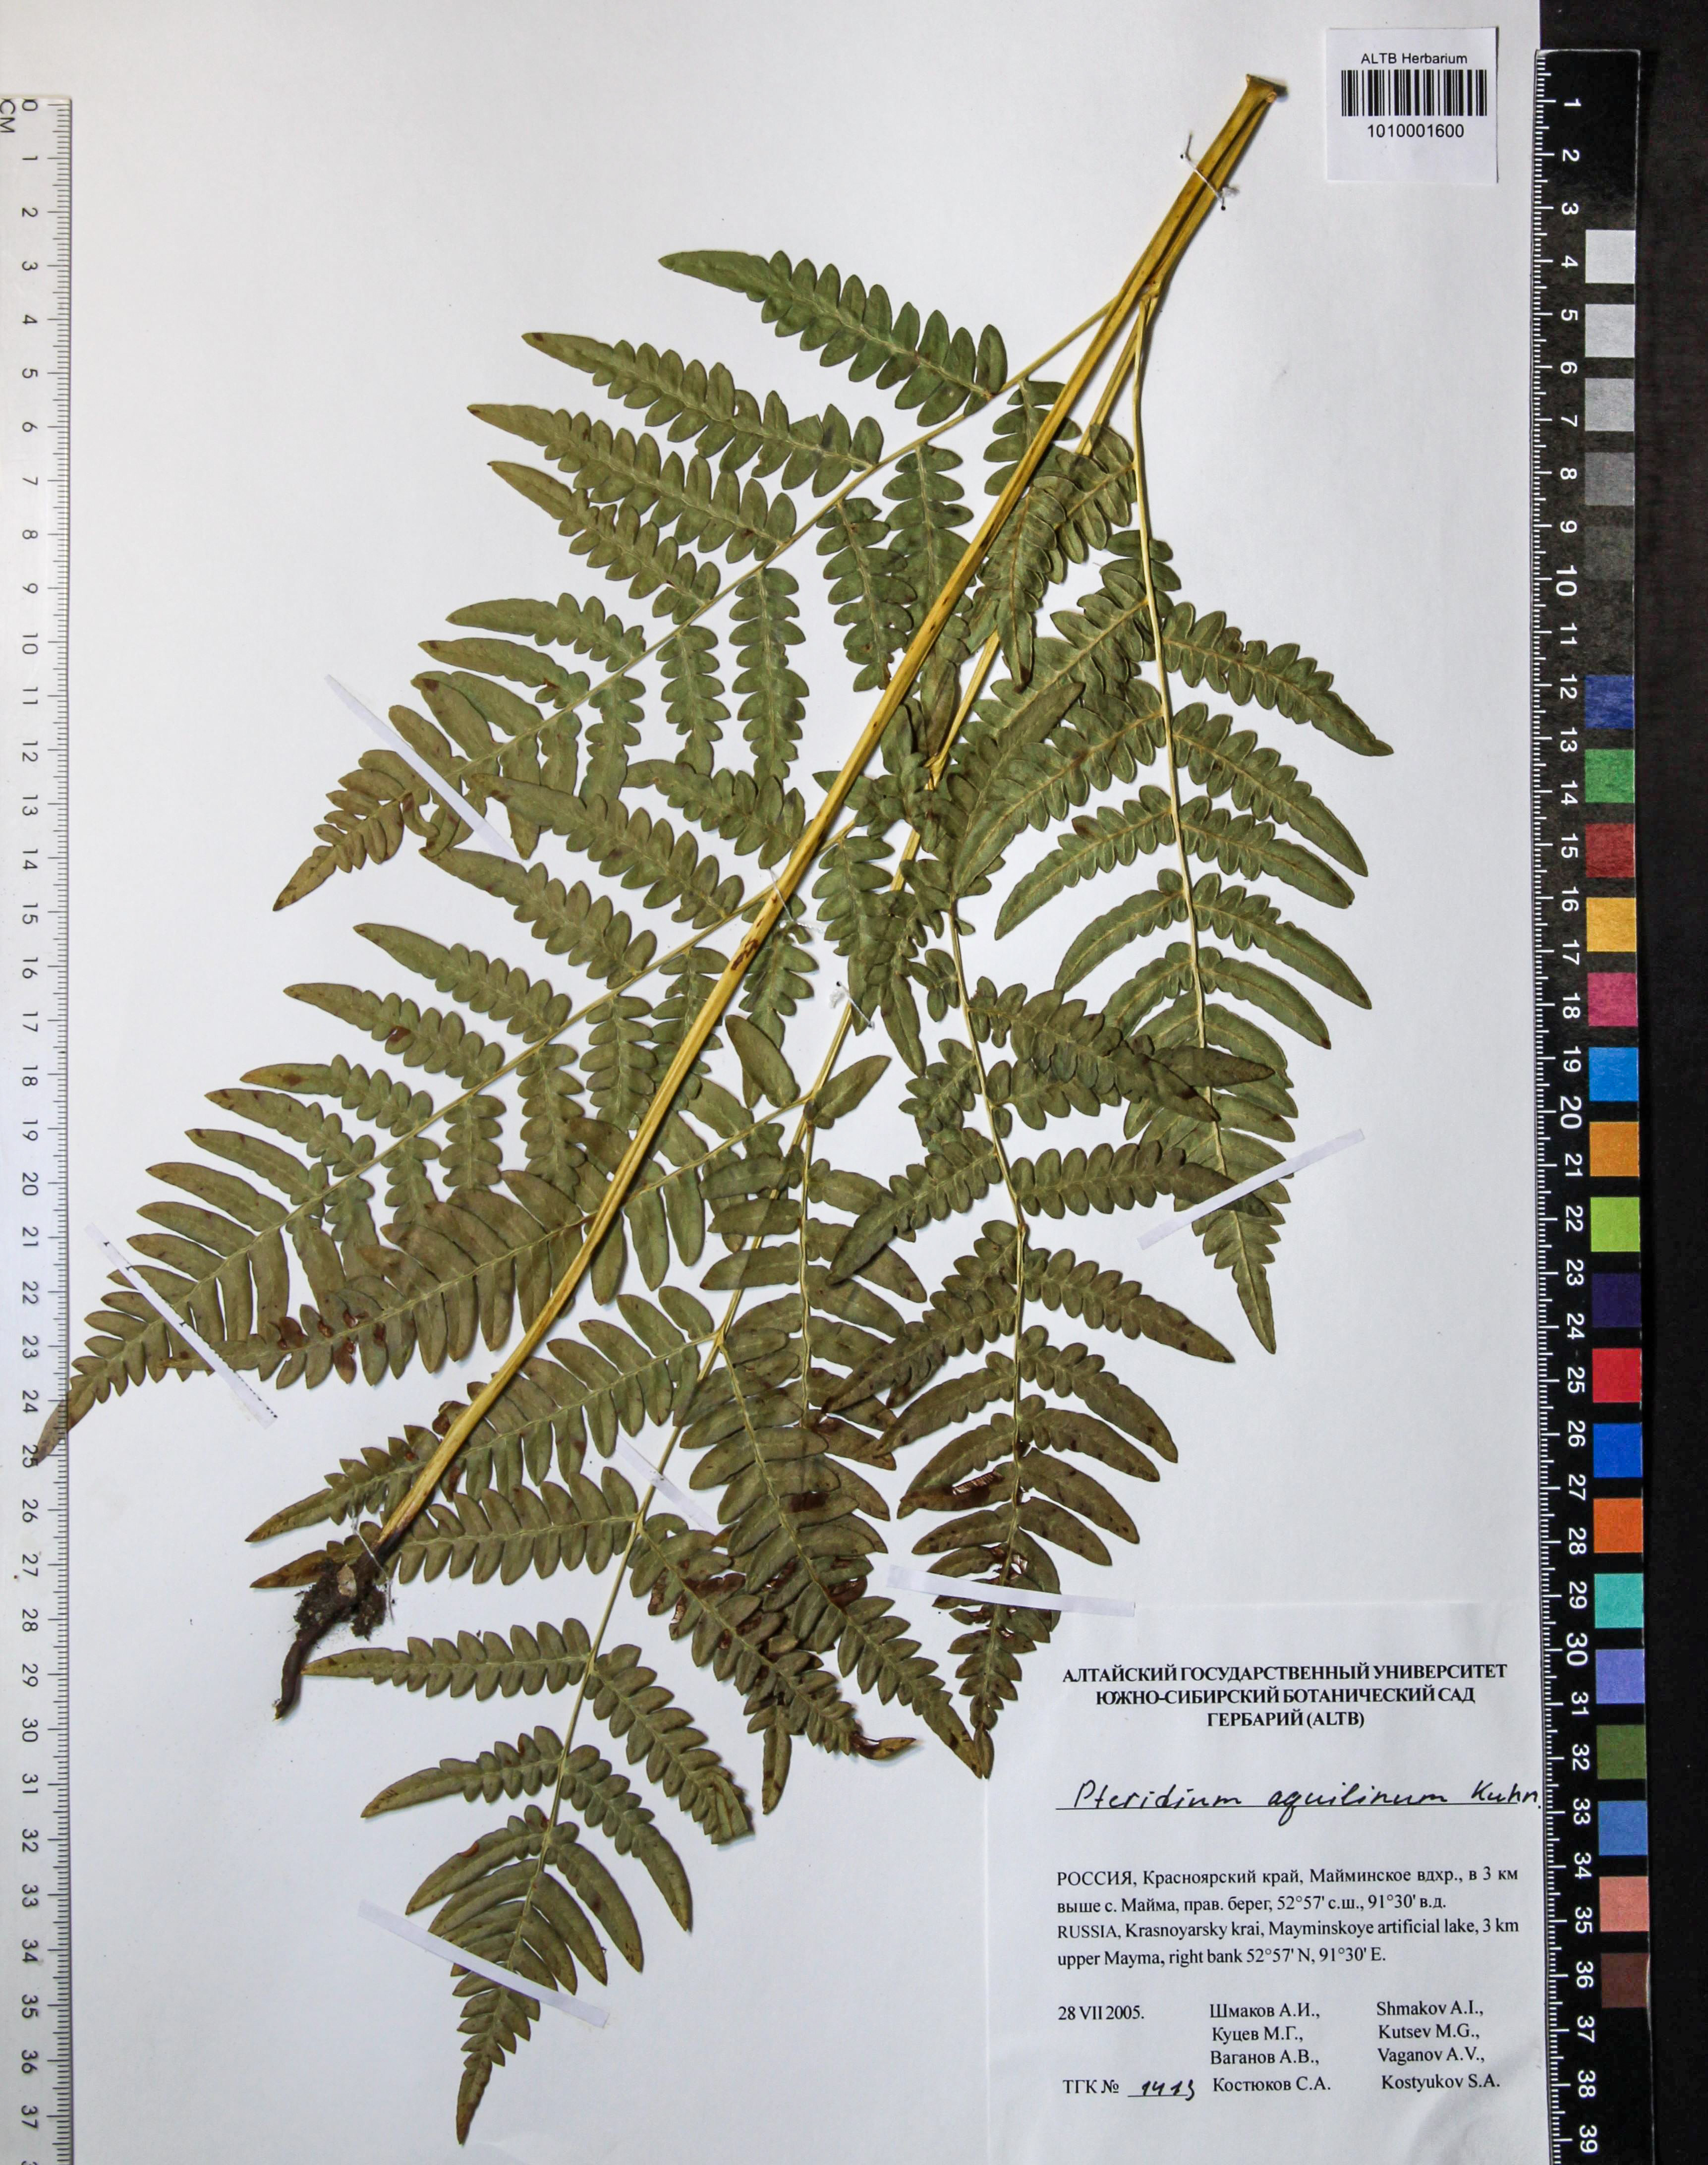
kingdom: Plantae
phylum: Tracheophyta
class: Polypodiopsida
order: Polypodiales
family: Dennstaedtiaceae
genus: Pteridium
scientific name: Pteridium aquilinum
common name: Bracken
